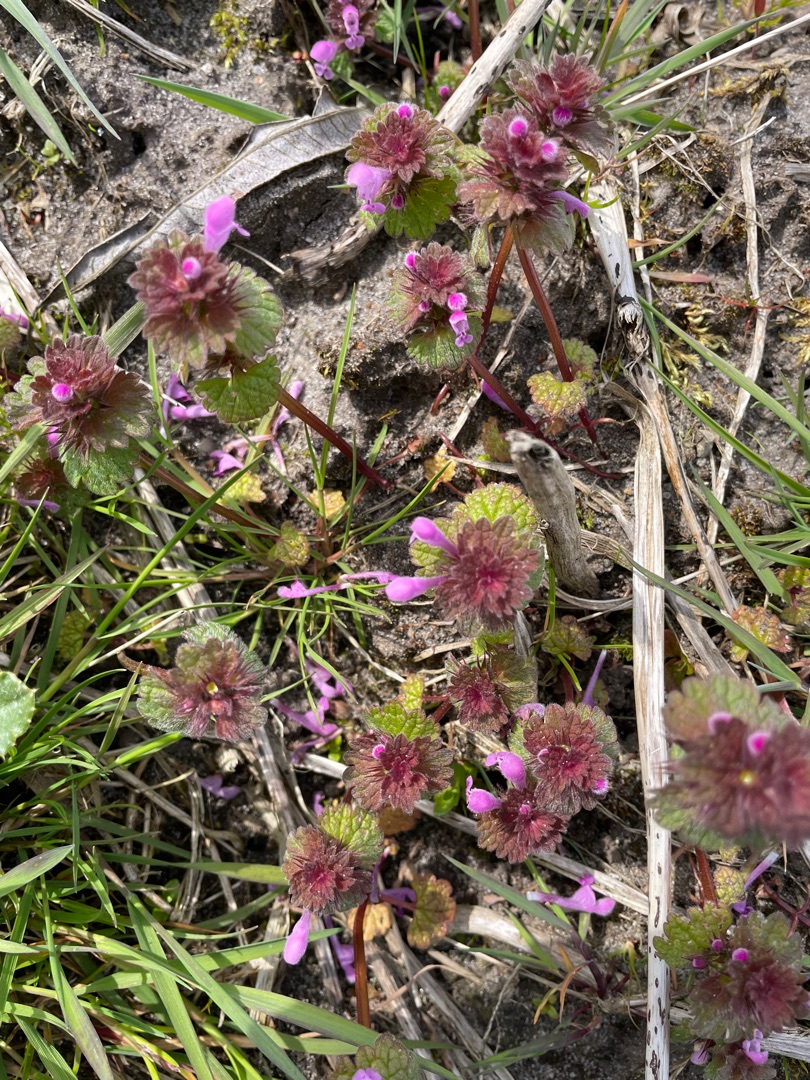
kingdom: Plantae
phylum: Tracheophyta
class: Magnoliopsida
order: Lamiales
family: Lamiaceae
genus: Lamium
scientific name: Lamium purpureum
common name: Rød tvetand
